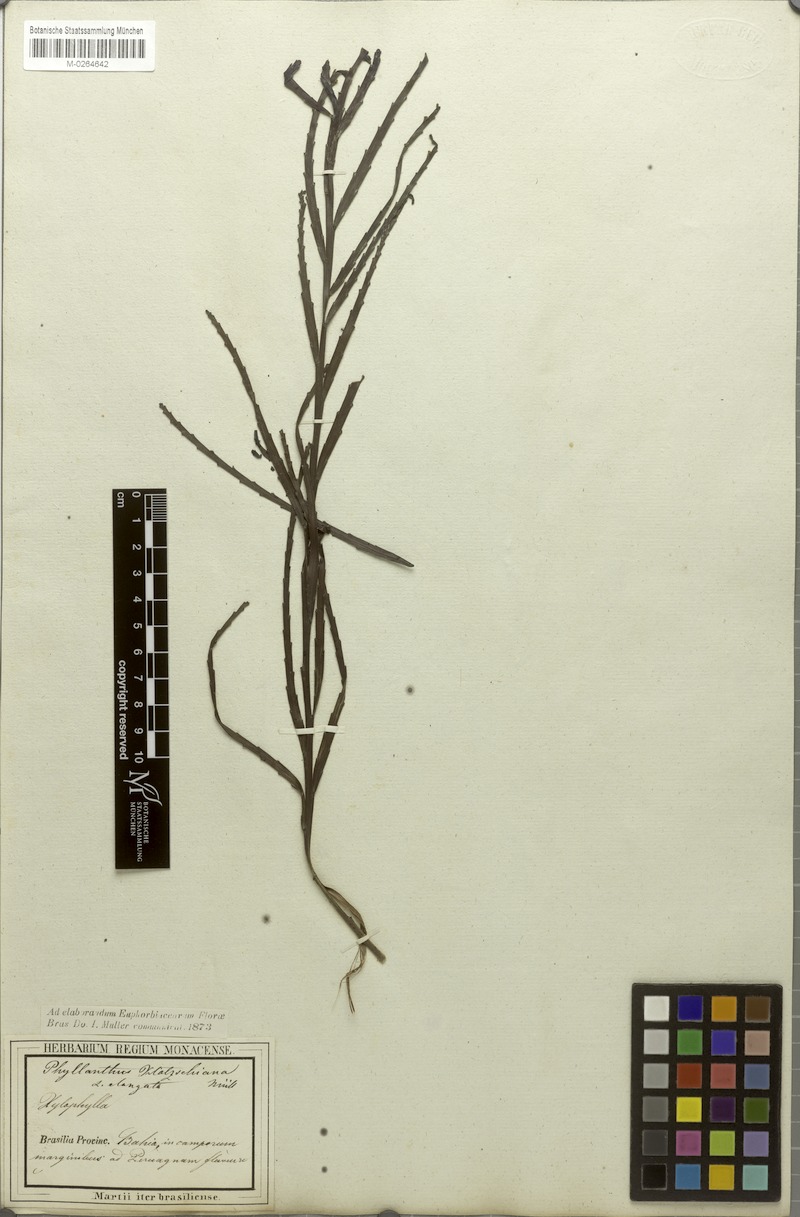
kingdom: Plantae
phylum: Tracheophyta
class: Magnoliopsida
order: Malpighiales
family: Phyllanthaceae
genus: Phyllanthus
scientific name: Phyllanthus robustus
